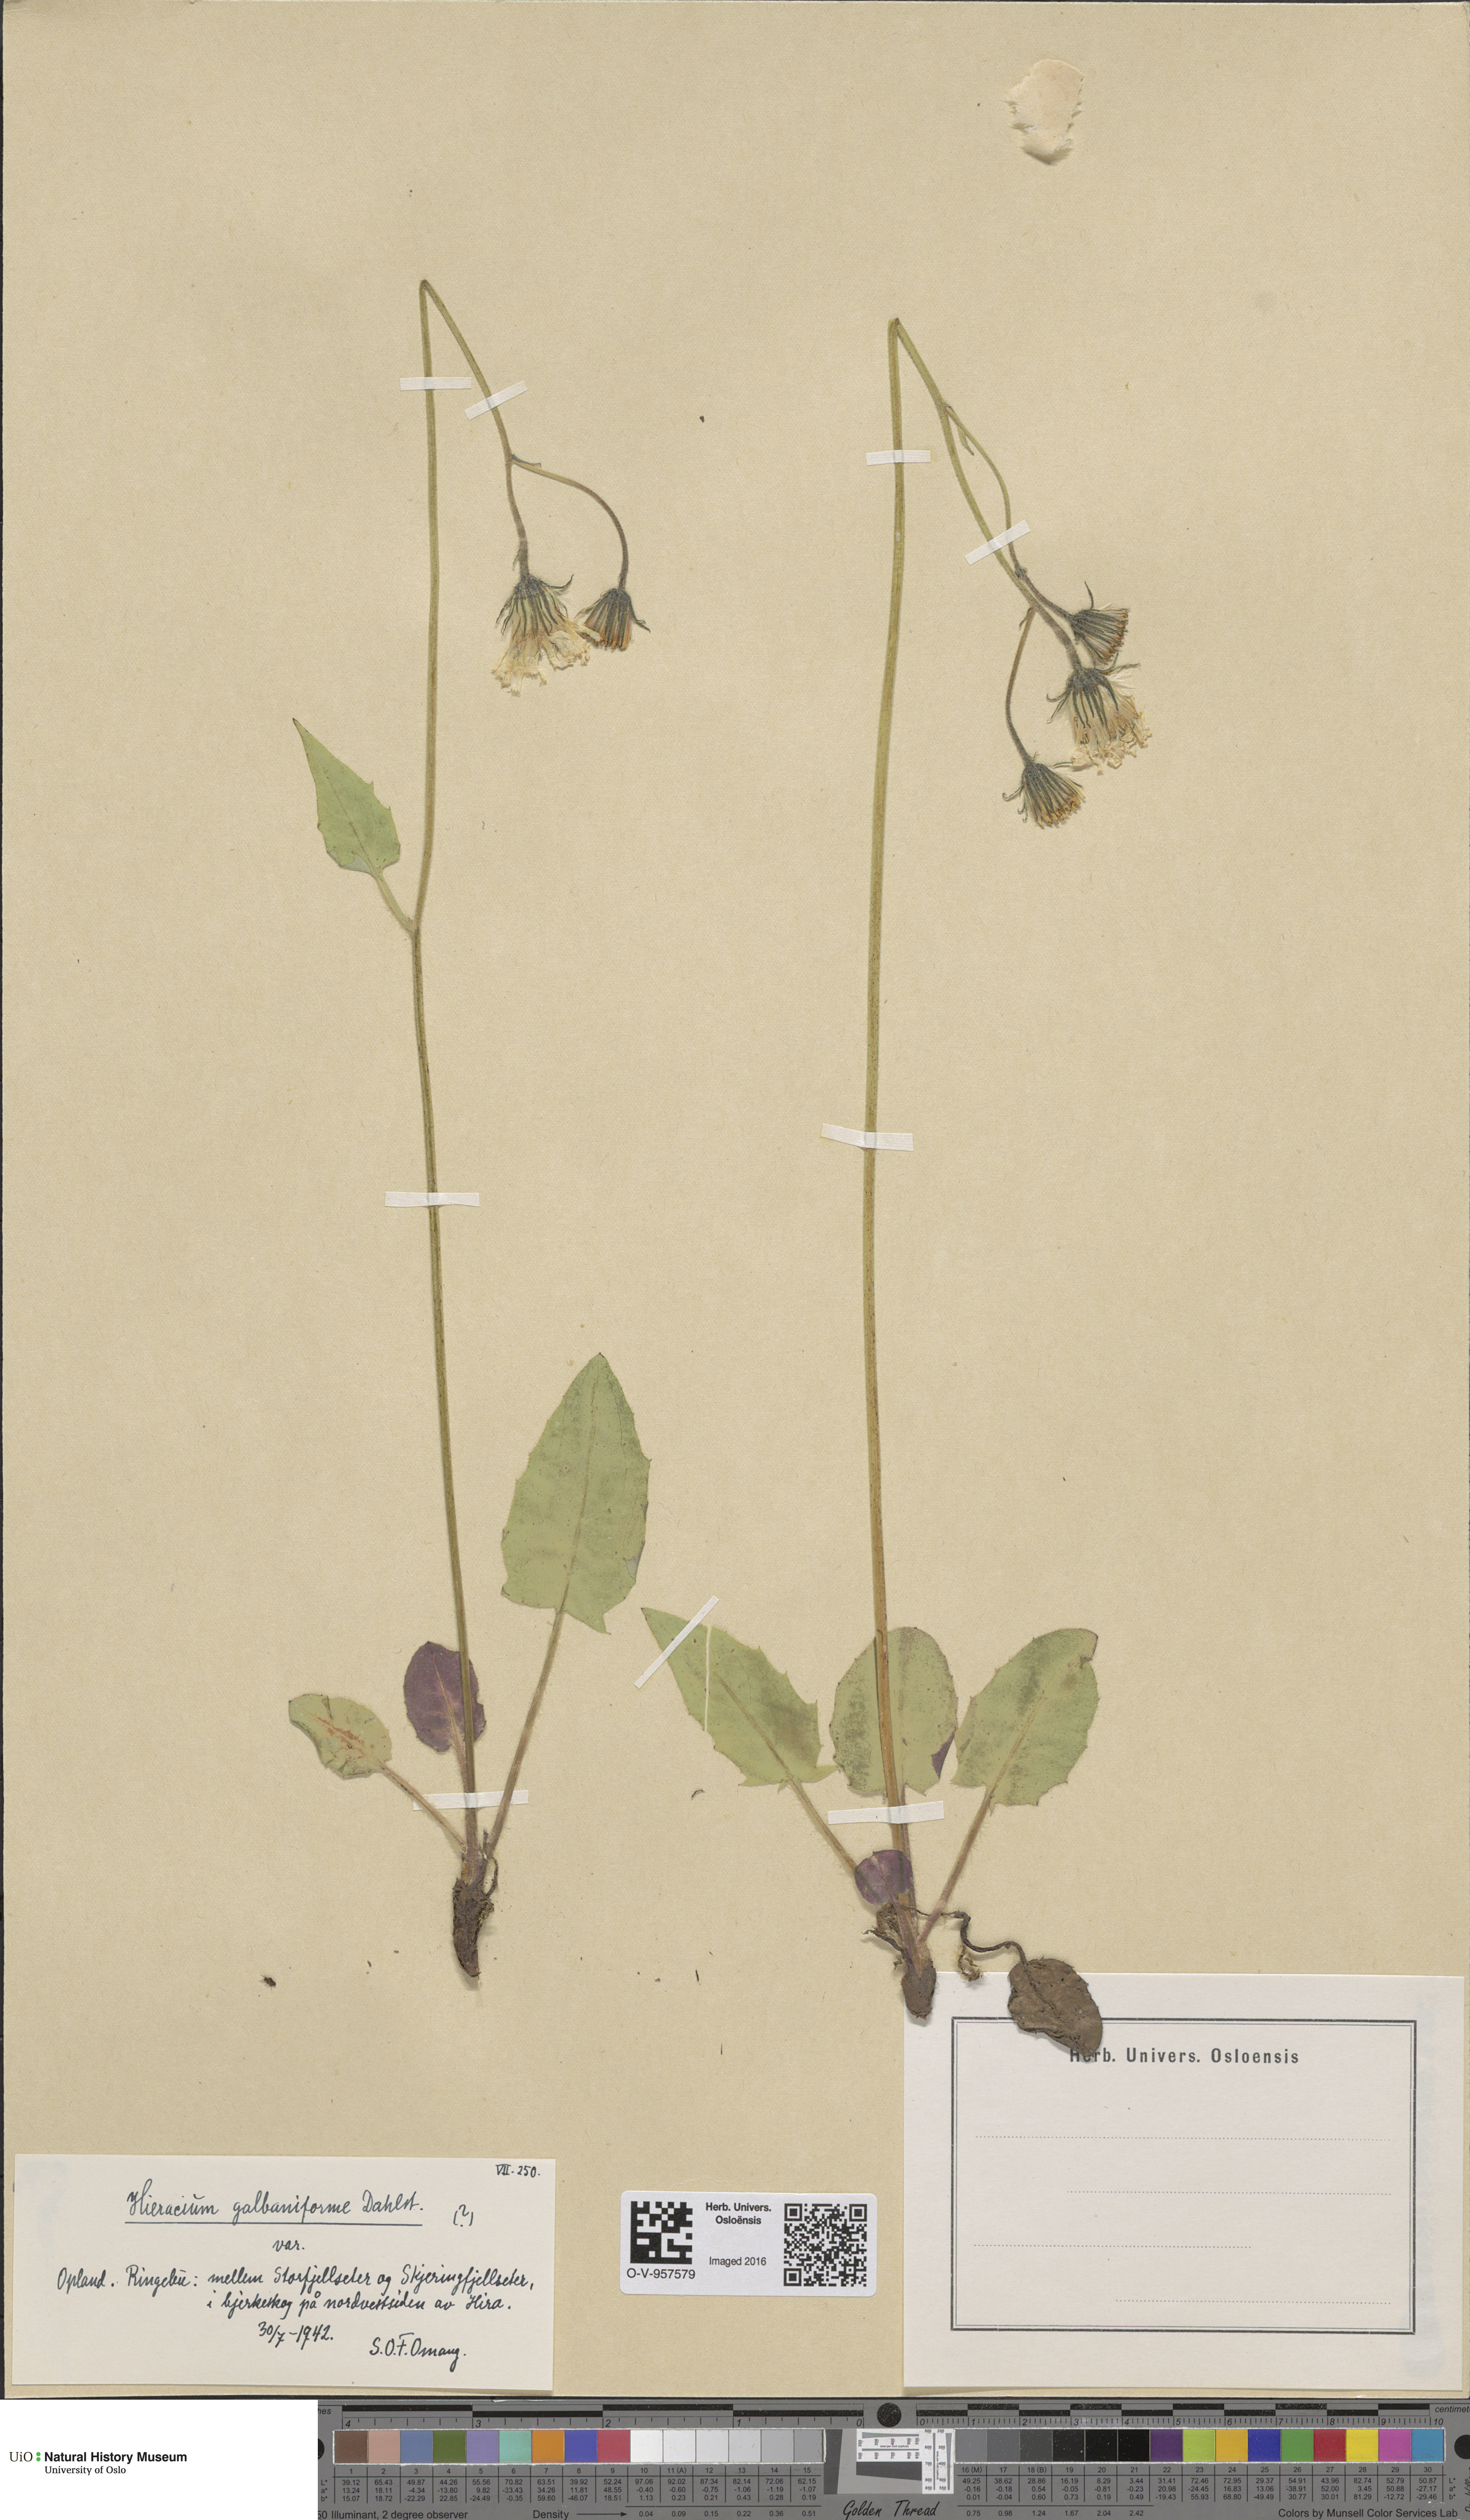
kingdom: Plantae
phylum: Tracheophyta
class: Magnoliopsida
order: Asterales
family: Asteraceae
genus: Hieracium
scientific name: Hieracium bifidum
